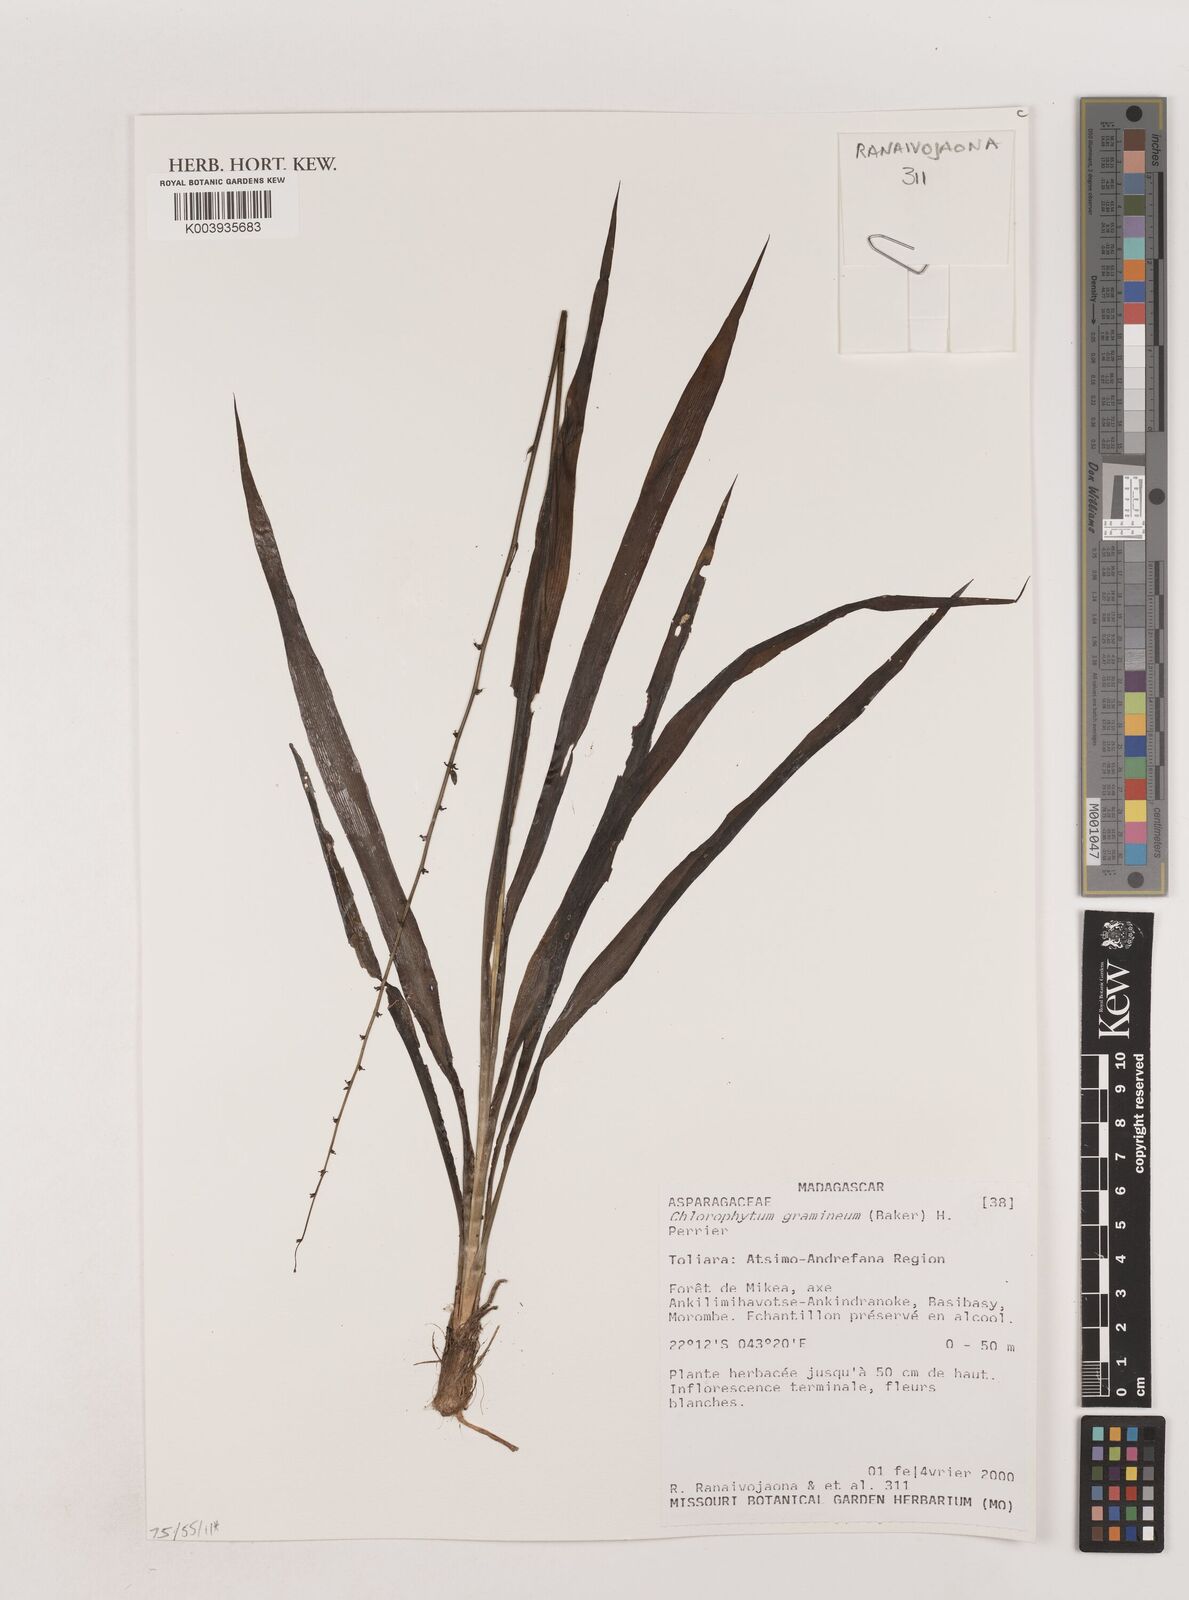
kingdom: Plantae
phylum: Tracheophyta
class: Liliopsida
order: Asparagales
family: Asparagaceae
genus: Chlorophytum
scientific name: Chlorophytum madagascariense
